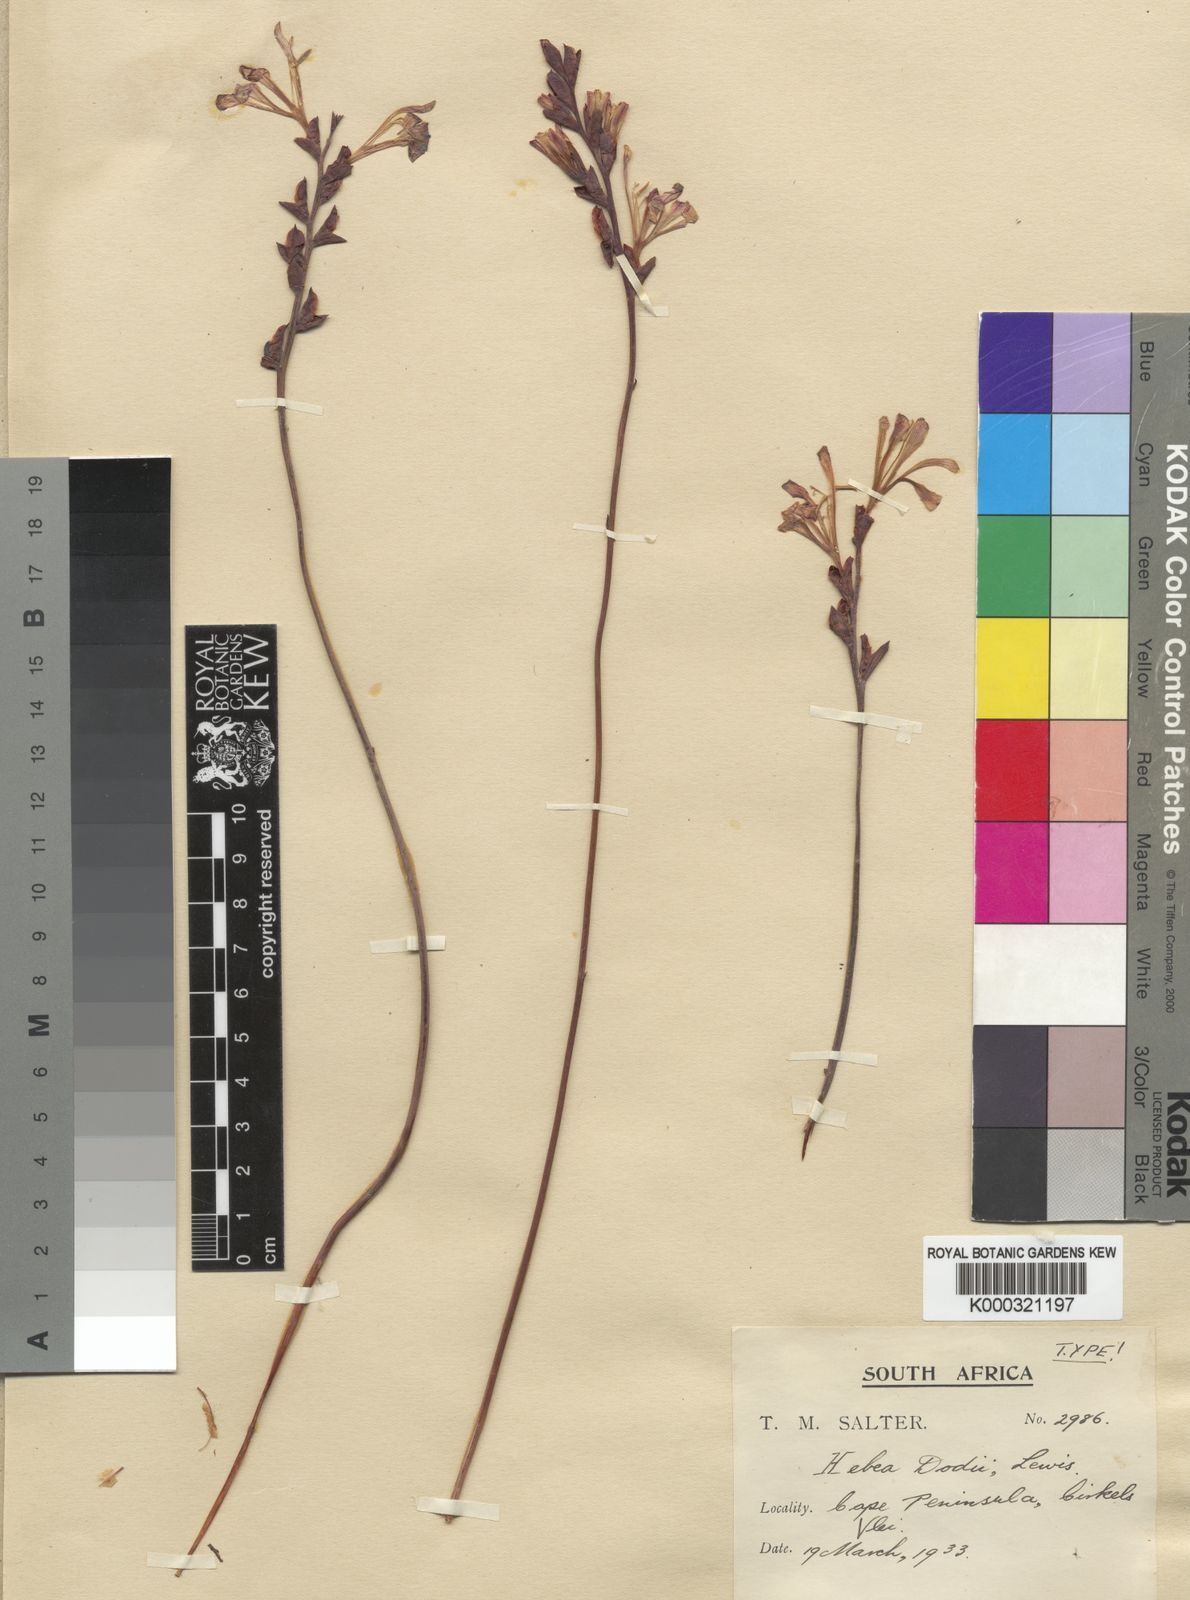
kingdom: Plantae
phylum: Tracheophyta
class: Liliopsida
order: Asparagales
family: Iridaceae
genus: Tritoniopsis
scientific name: Tritoniopsis dodii
